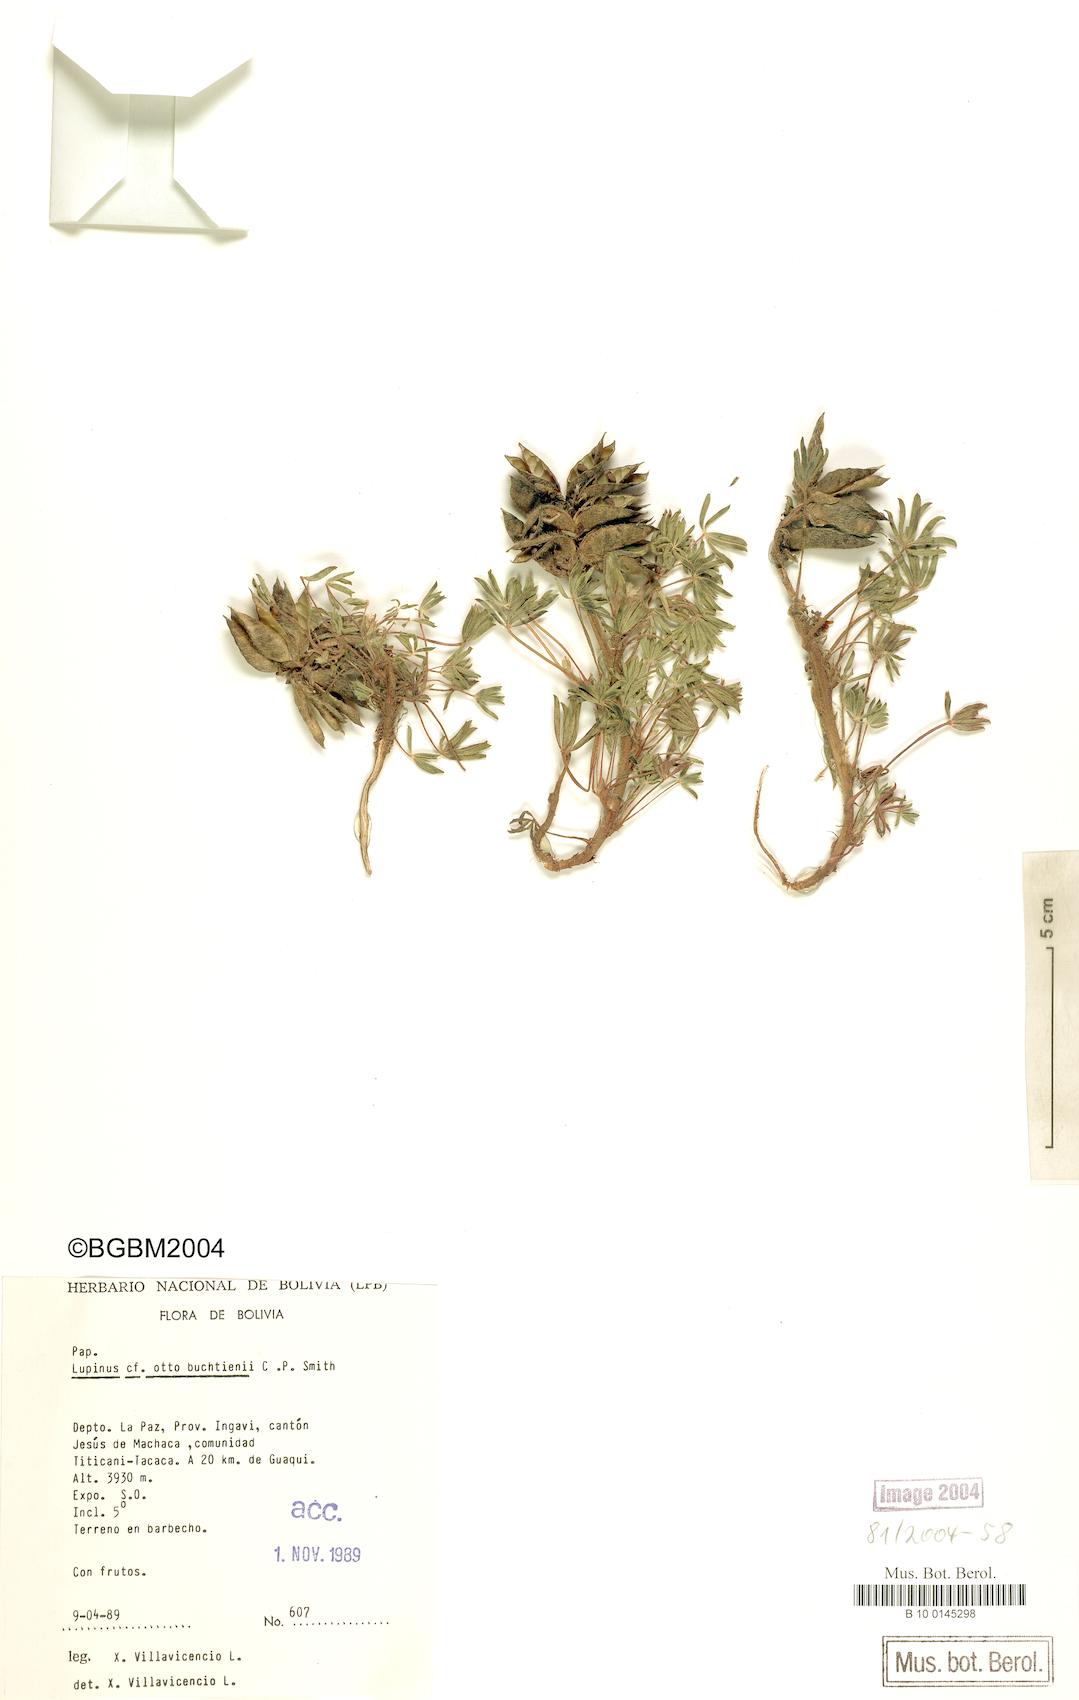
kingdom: Plantae
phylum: Tracheophyta
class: Magnoliopsida
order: Fabales
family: Fabaceae
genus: Lupinus
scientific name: Lupinus otto-buchtienii
